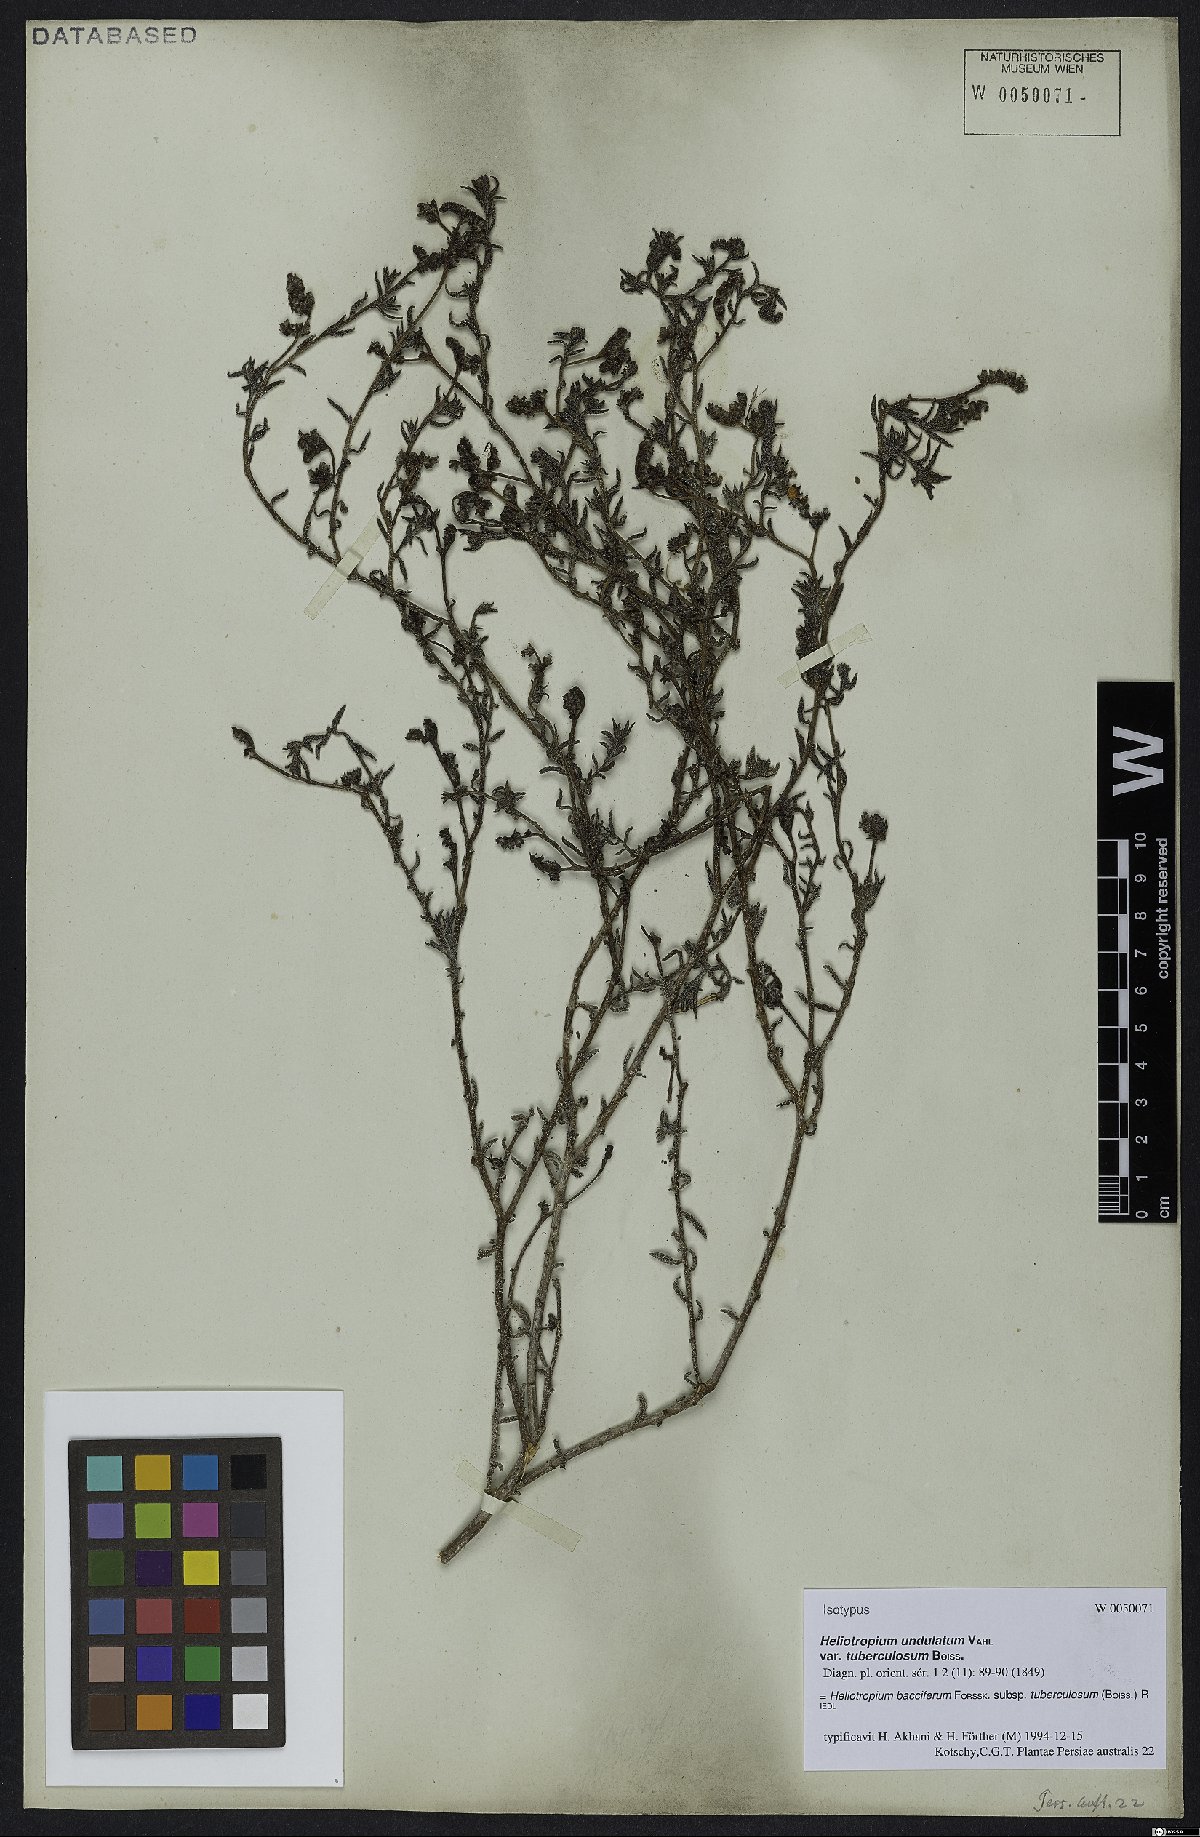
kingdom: Plantae
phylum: Tracheophyta
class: Magnoliopsida
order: Boraginales
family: Heliotropiaceae
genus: Heliotropium
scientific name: Heliotropium bacciferum
